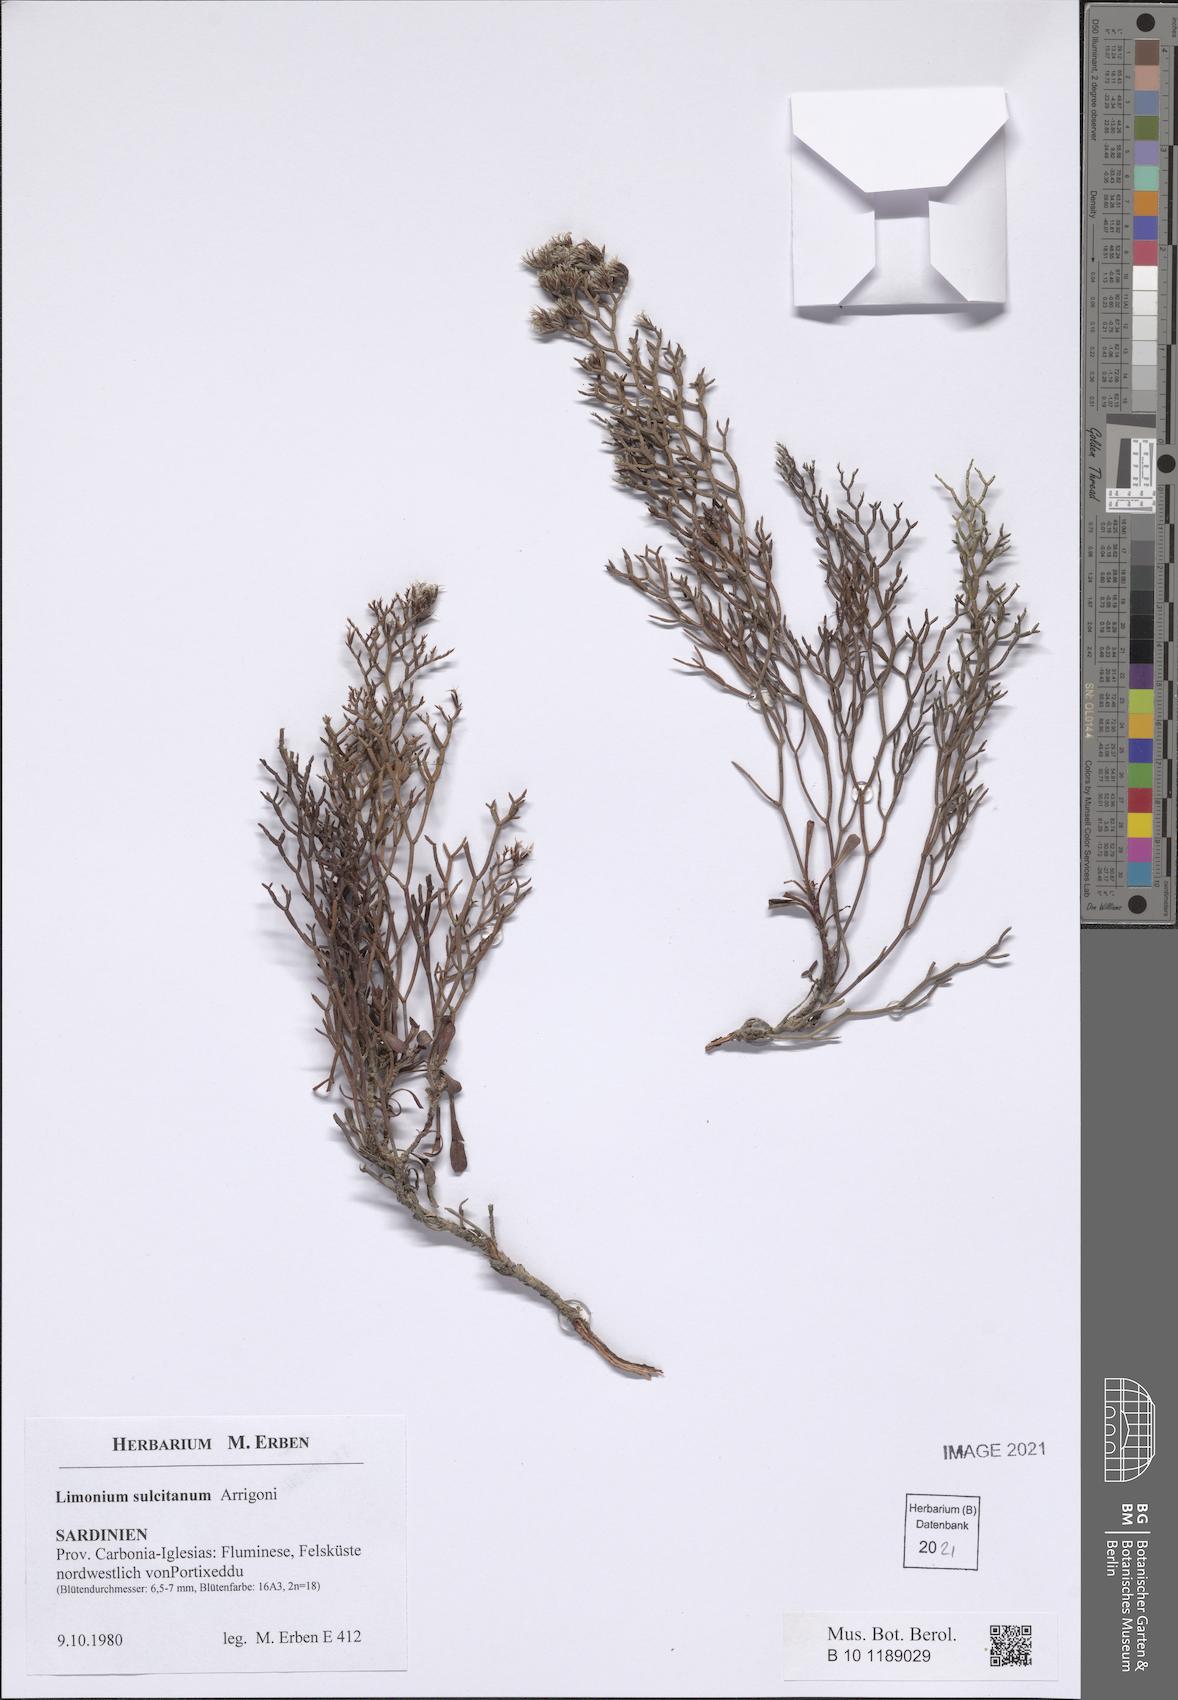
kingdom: Plantae
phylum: Tracheophyta
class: Magnoliopsida
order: Caryophyllales
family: Plumbaginaceae
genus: Limonium
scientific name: Limonium sulcitanum
